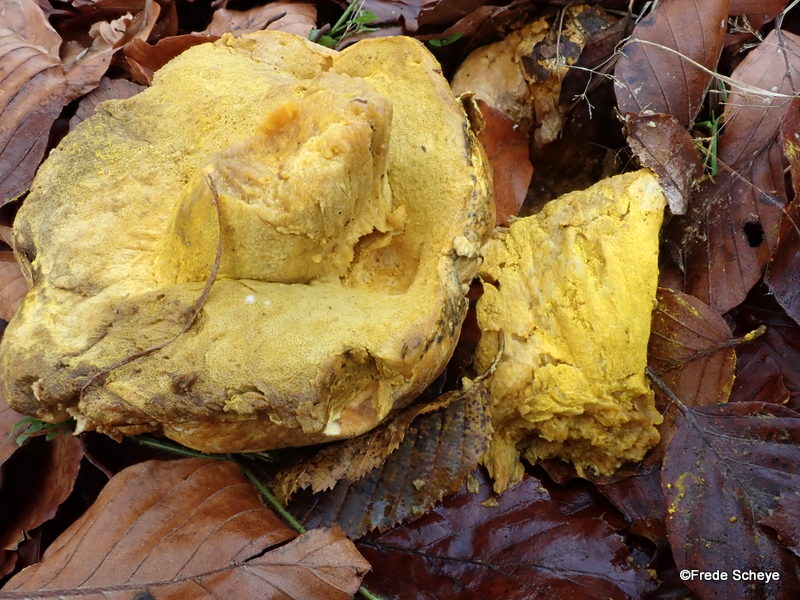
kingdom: Fungi
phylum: Ascomycota
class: Sordariomycetes
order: Hypocreales
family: Hypocreaceae
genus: Hypomyces
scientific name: Hypomyces chrysospermus
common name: gulskimmel-snylteskorpe
